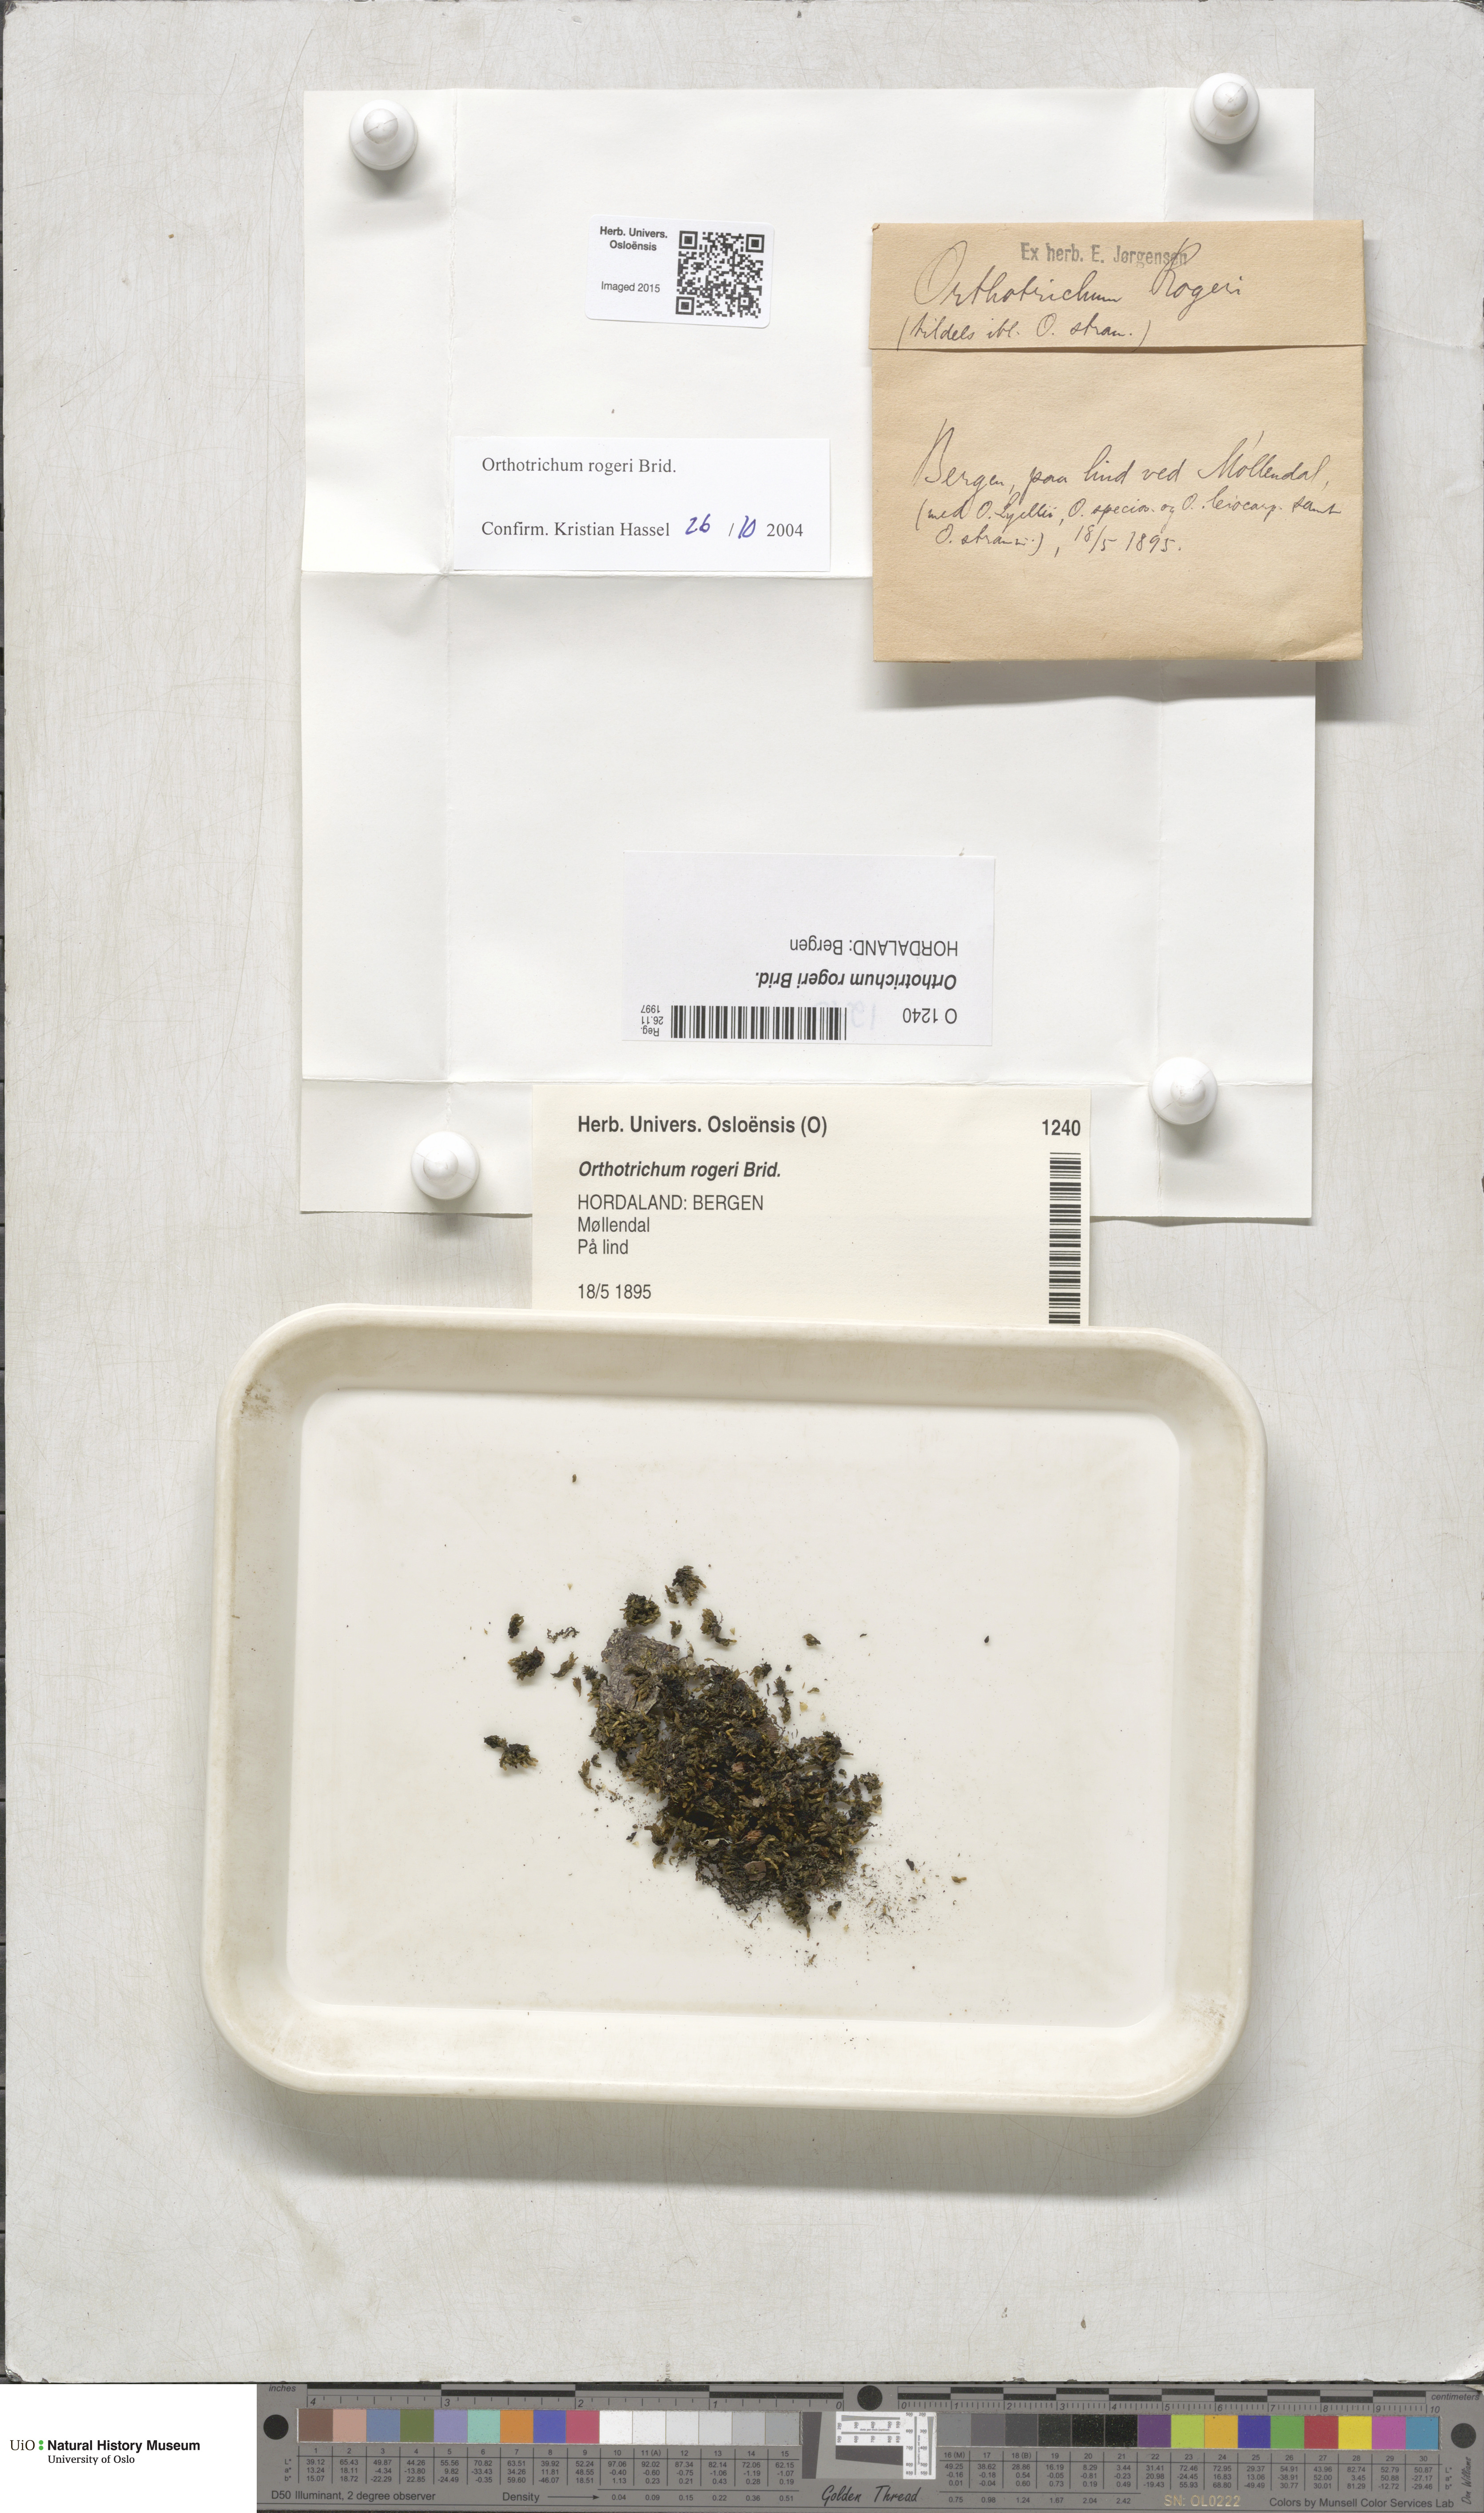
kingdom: Plantae
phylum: Bryophyta
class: Bryopsida
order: Orthotrichales
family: Orthotrichaceae
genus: Orthotrichum
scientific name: Orthotrichum rogeri
